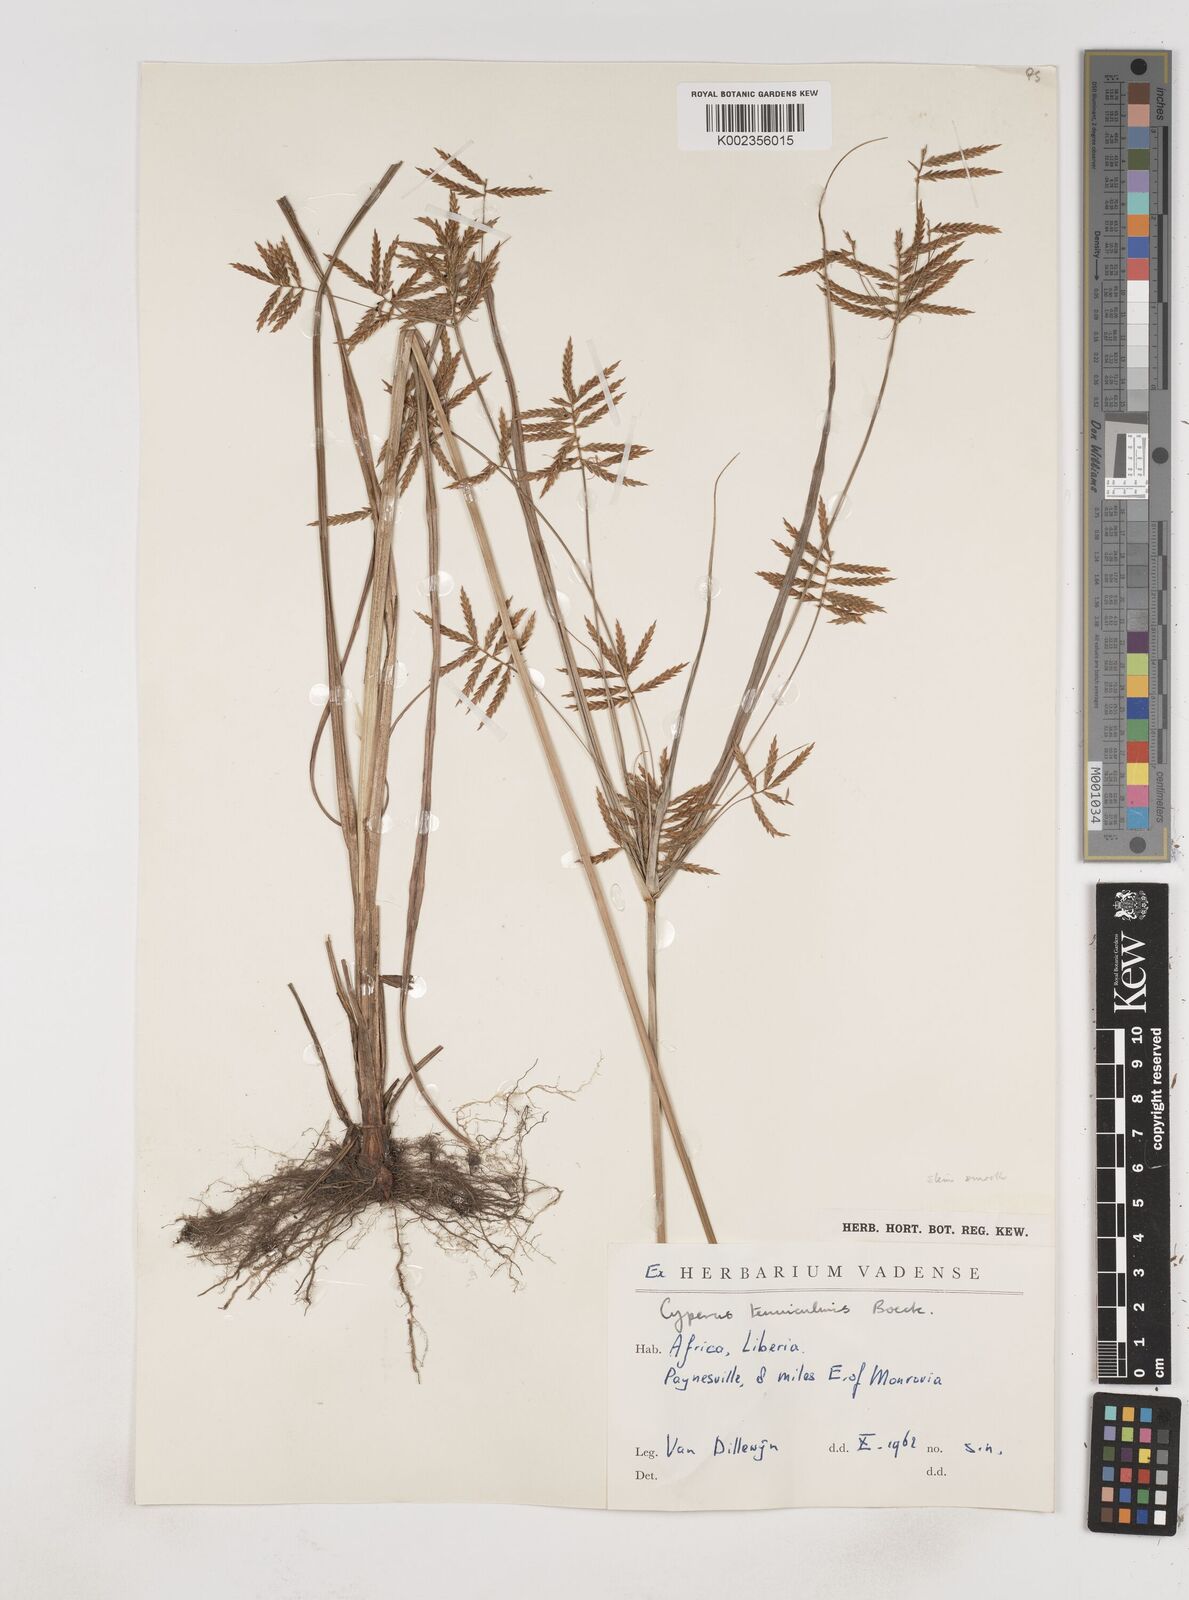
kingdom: Plantae
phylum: Tracheophyta
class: Liliopsida
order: Poales
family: Cyperaceae
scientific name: Cyperaceae
